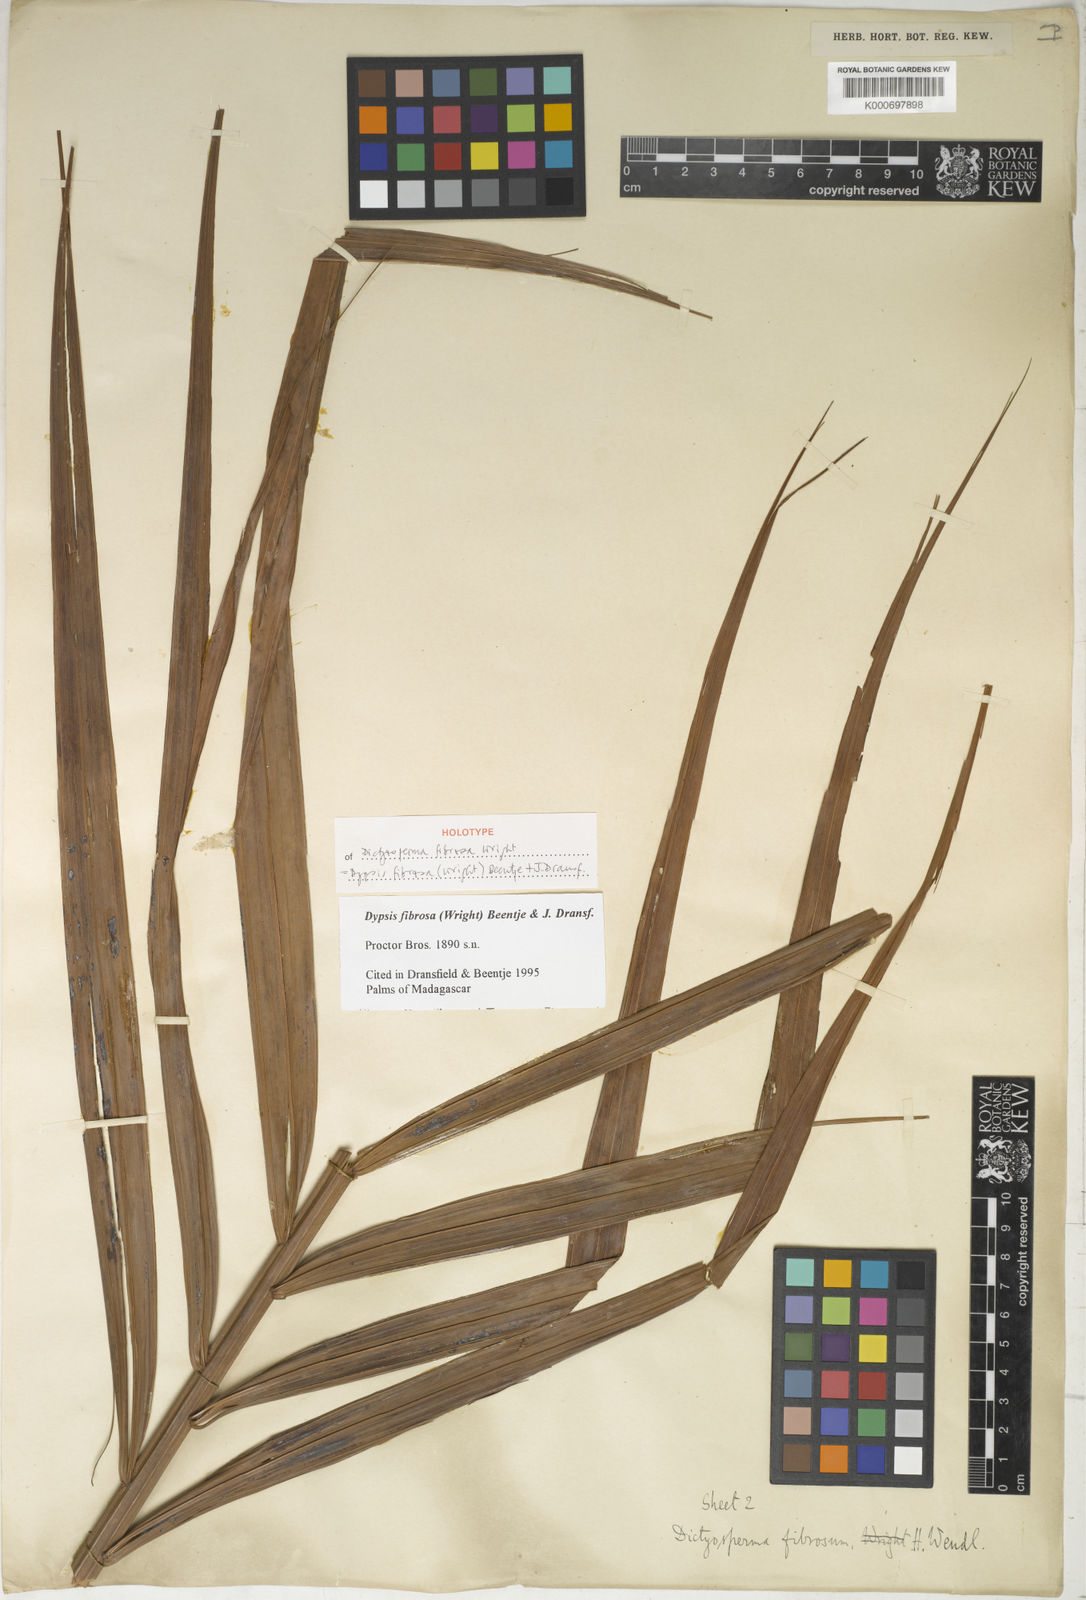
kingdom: Plantae
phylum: Tracheophyta
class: Liliopsida
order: Arecales
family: Arecaceae
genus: Dypsis
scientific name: Dypsis fibrosa
